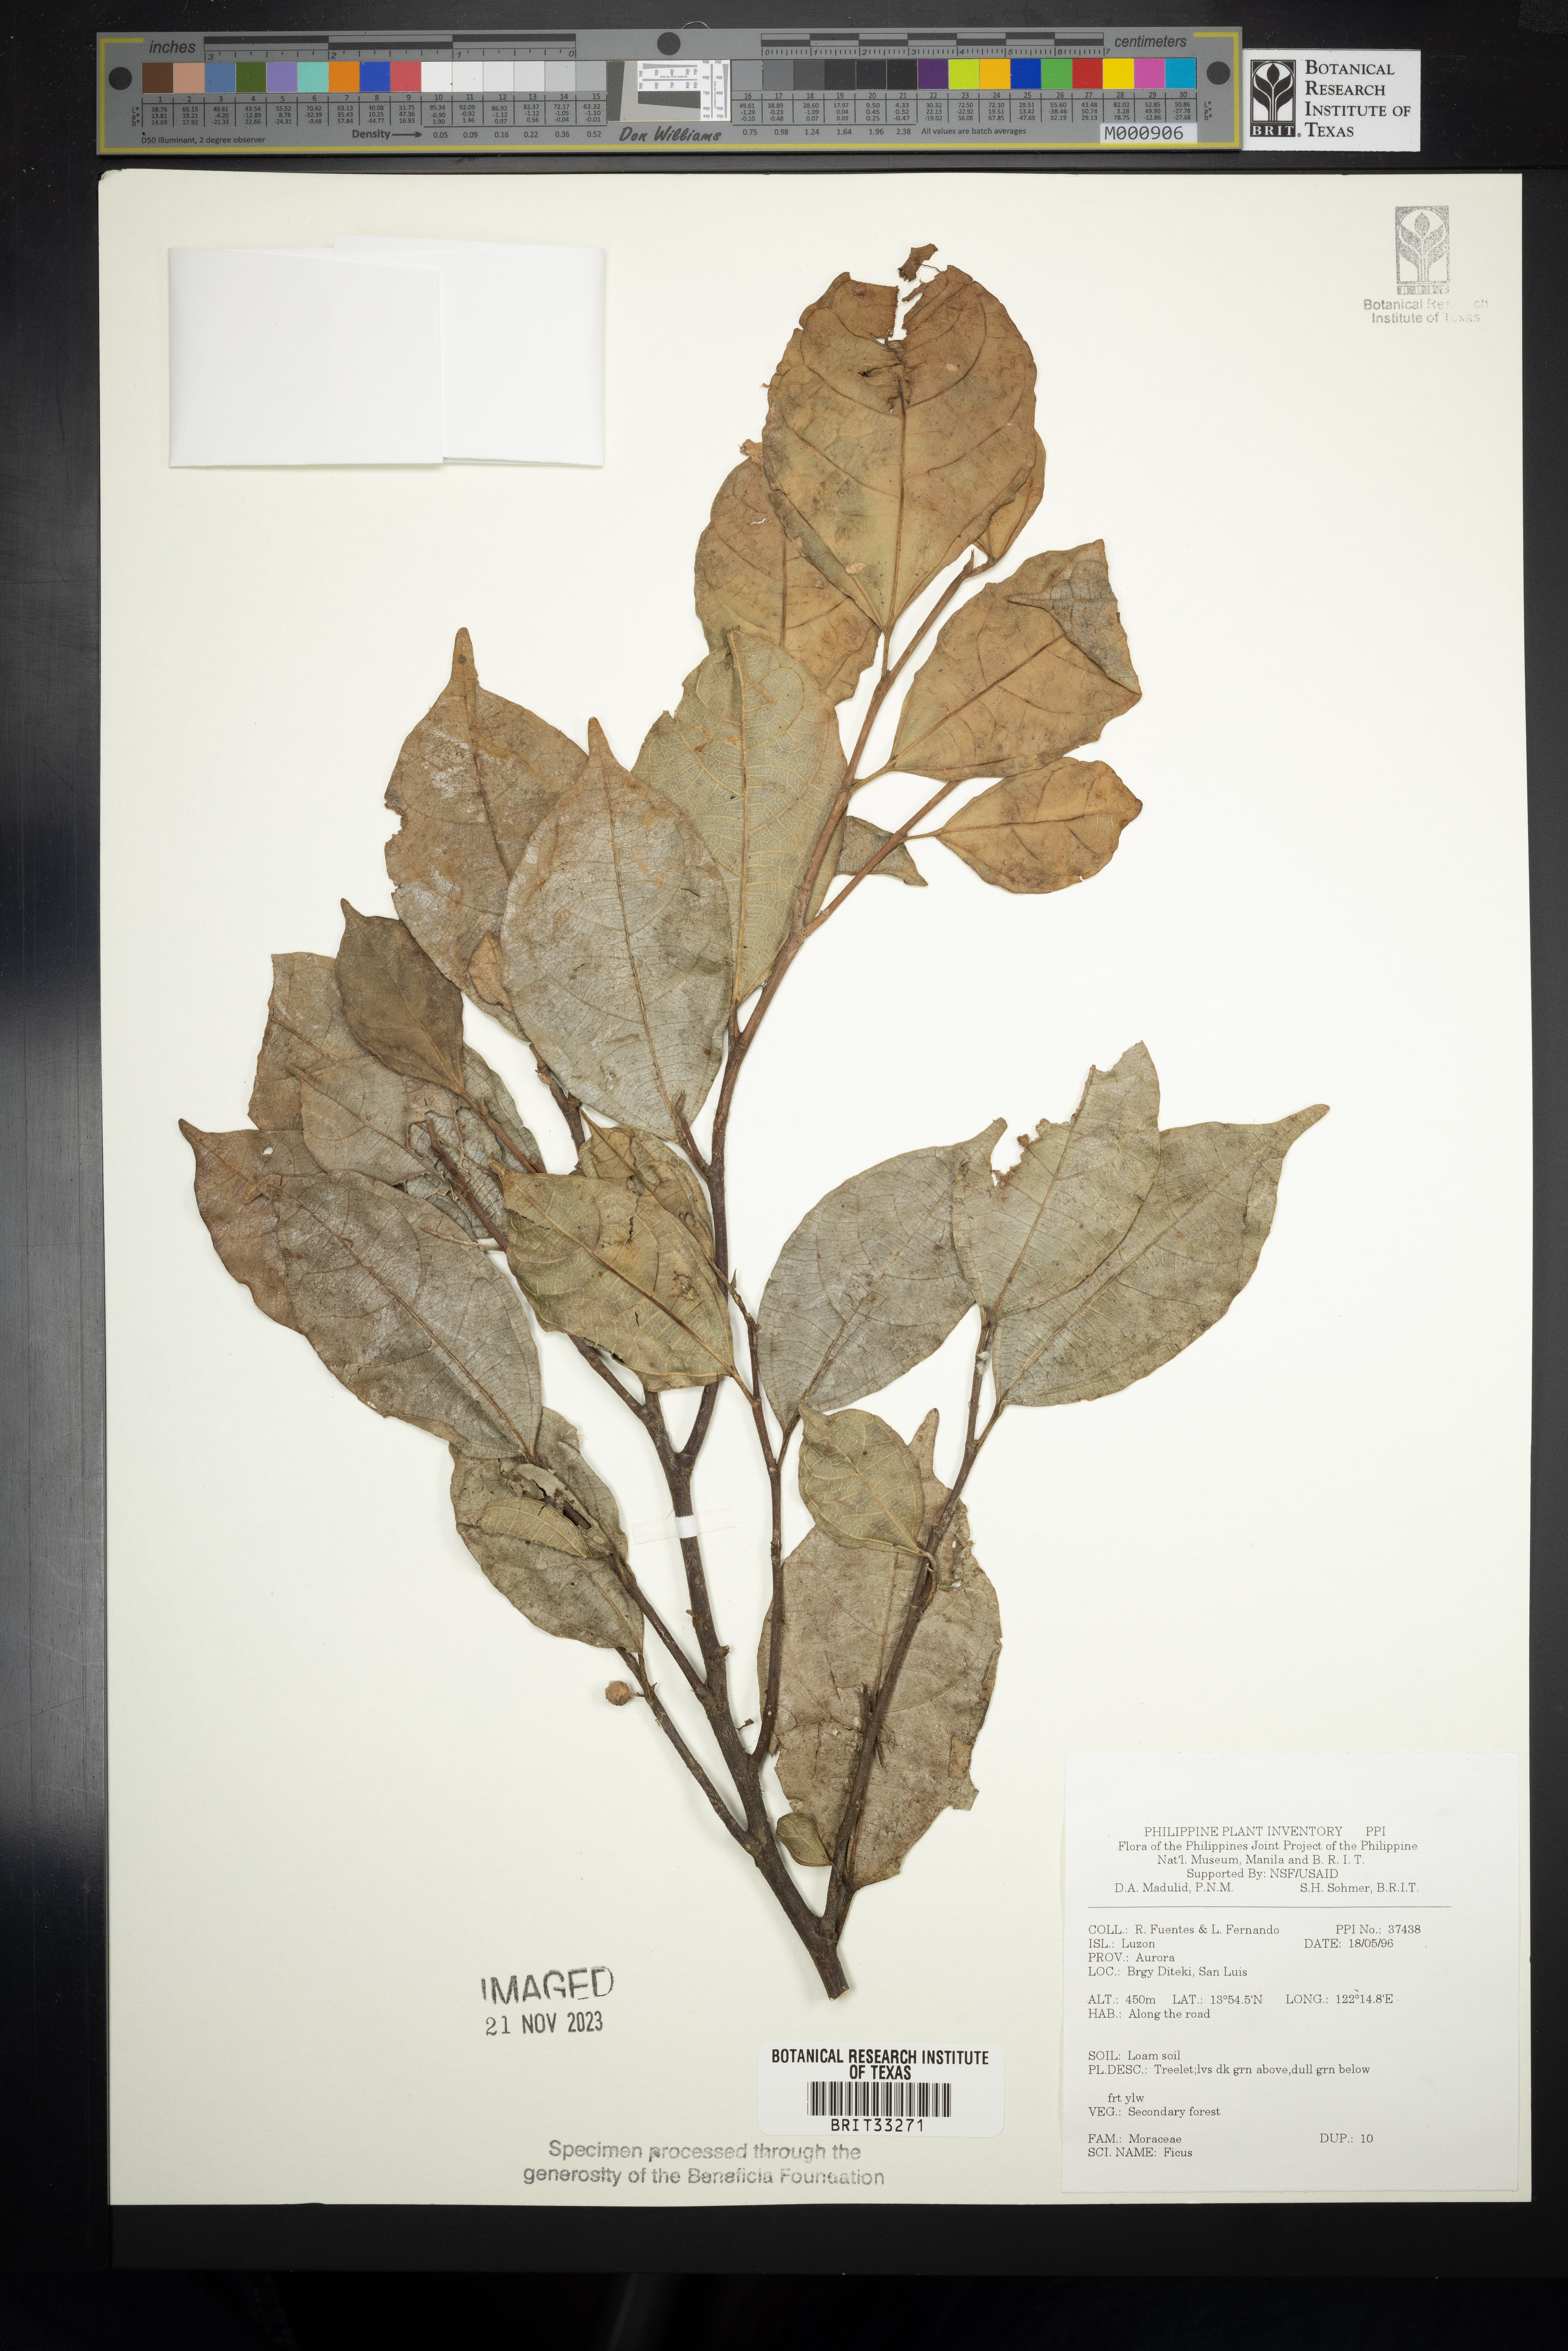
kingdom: Plantae
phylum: Tracheophyta
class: Magnoliopsida
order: Rosales
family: Moraceae
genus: Ficus
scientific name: Ficus
